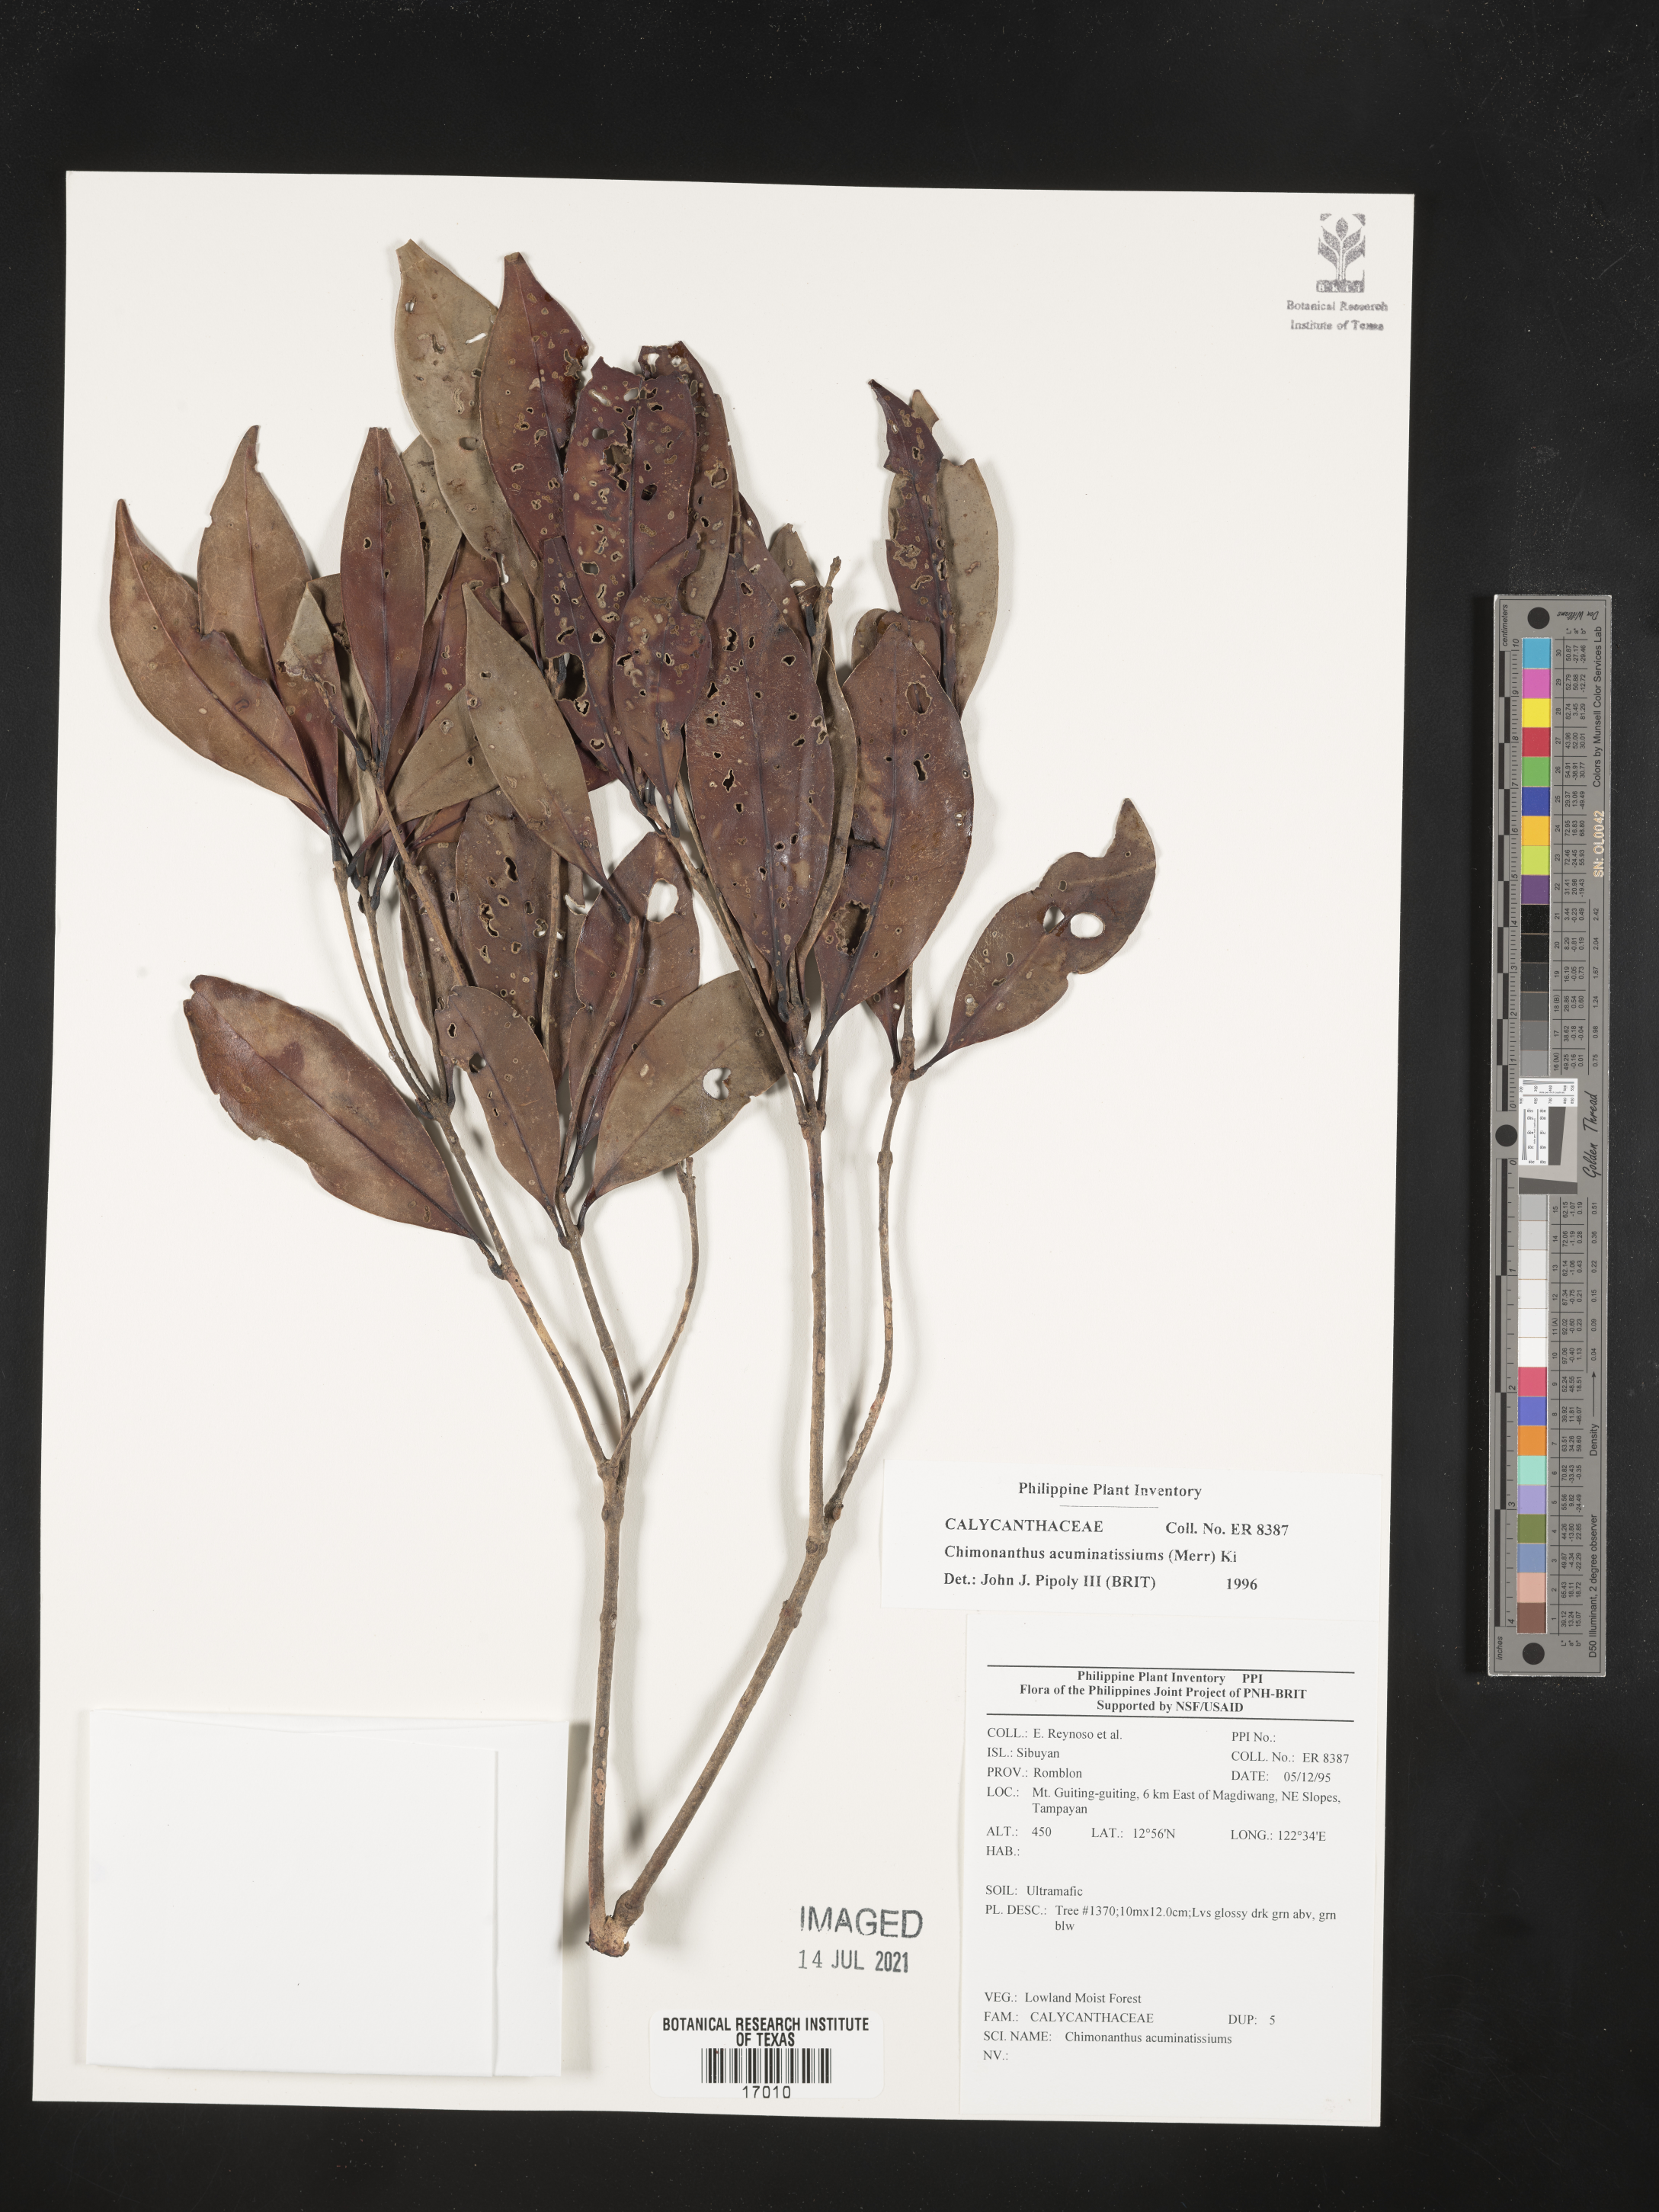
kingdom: Plantae
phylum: Tracheophyta
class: Magnoliopsida
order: Laurales
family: Calycanthaceae
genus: Chimonanthus
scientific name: Chimonanthus
